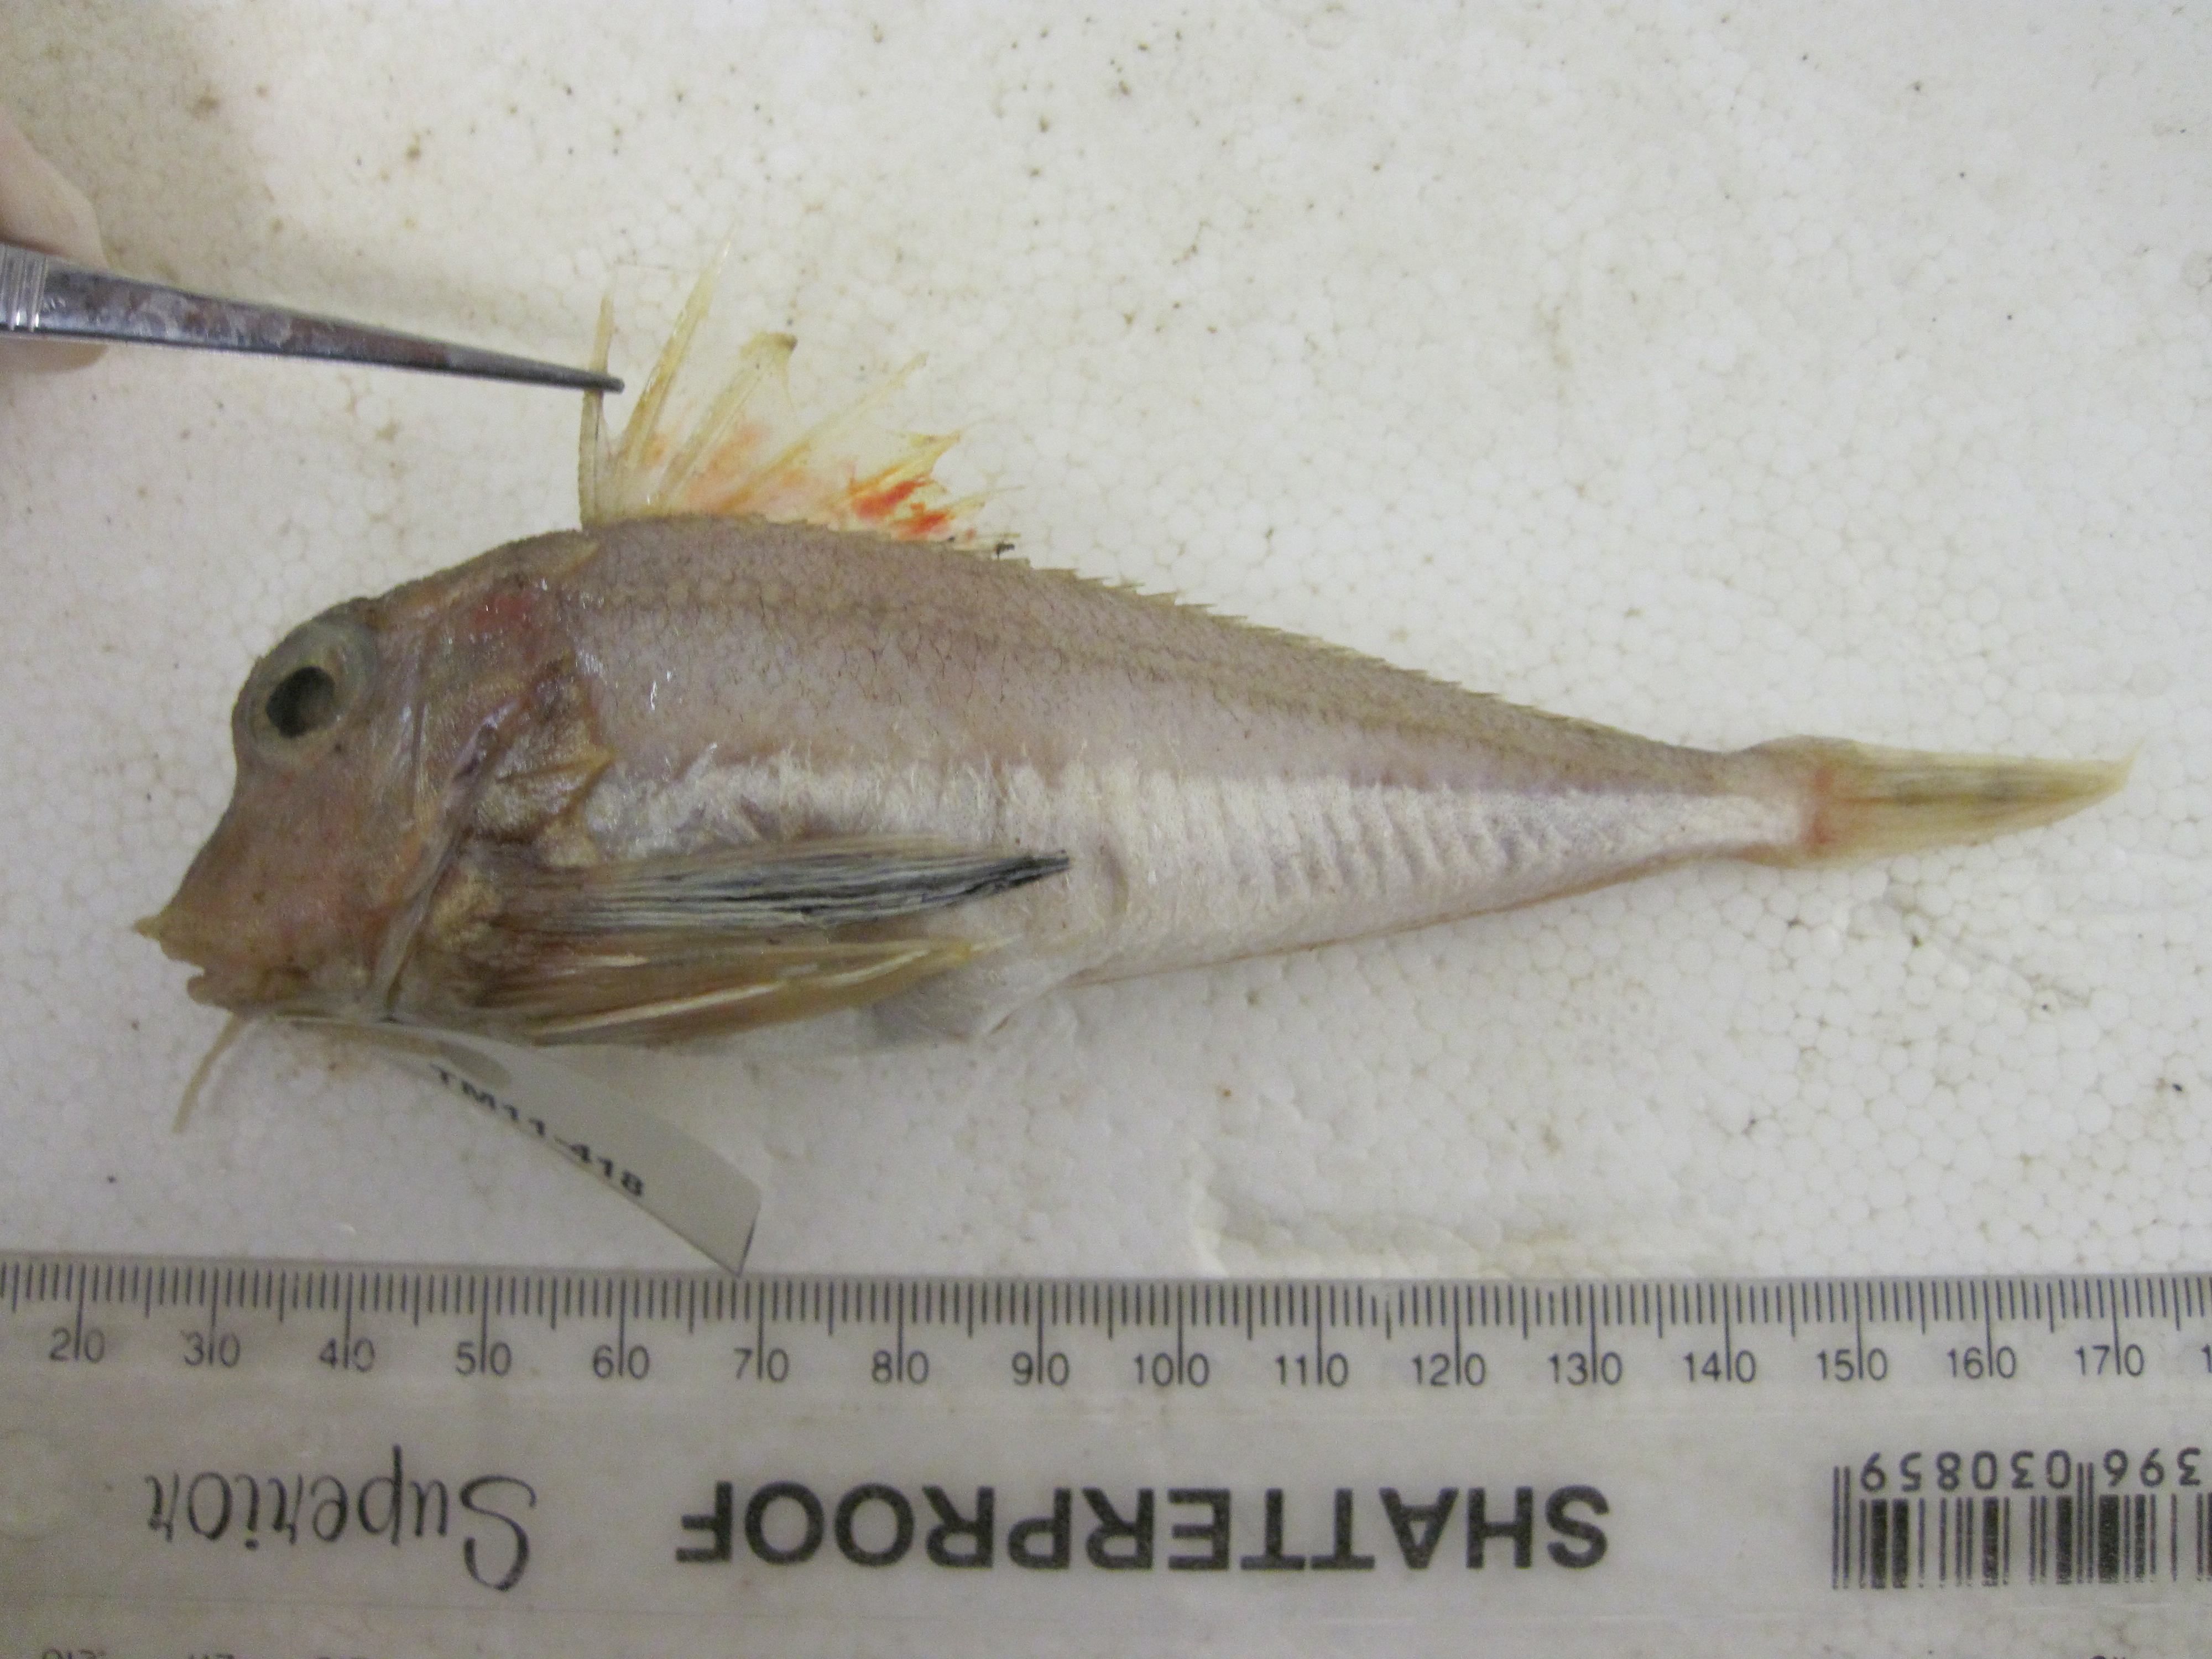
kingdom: Animalia
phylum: Chordata
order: Scorpaeniformes
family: Triglidae
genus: Lepidotrigla
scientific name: Lepidotrigla faurei
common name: Prickly gurnard
